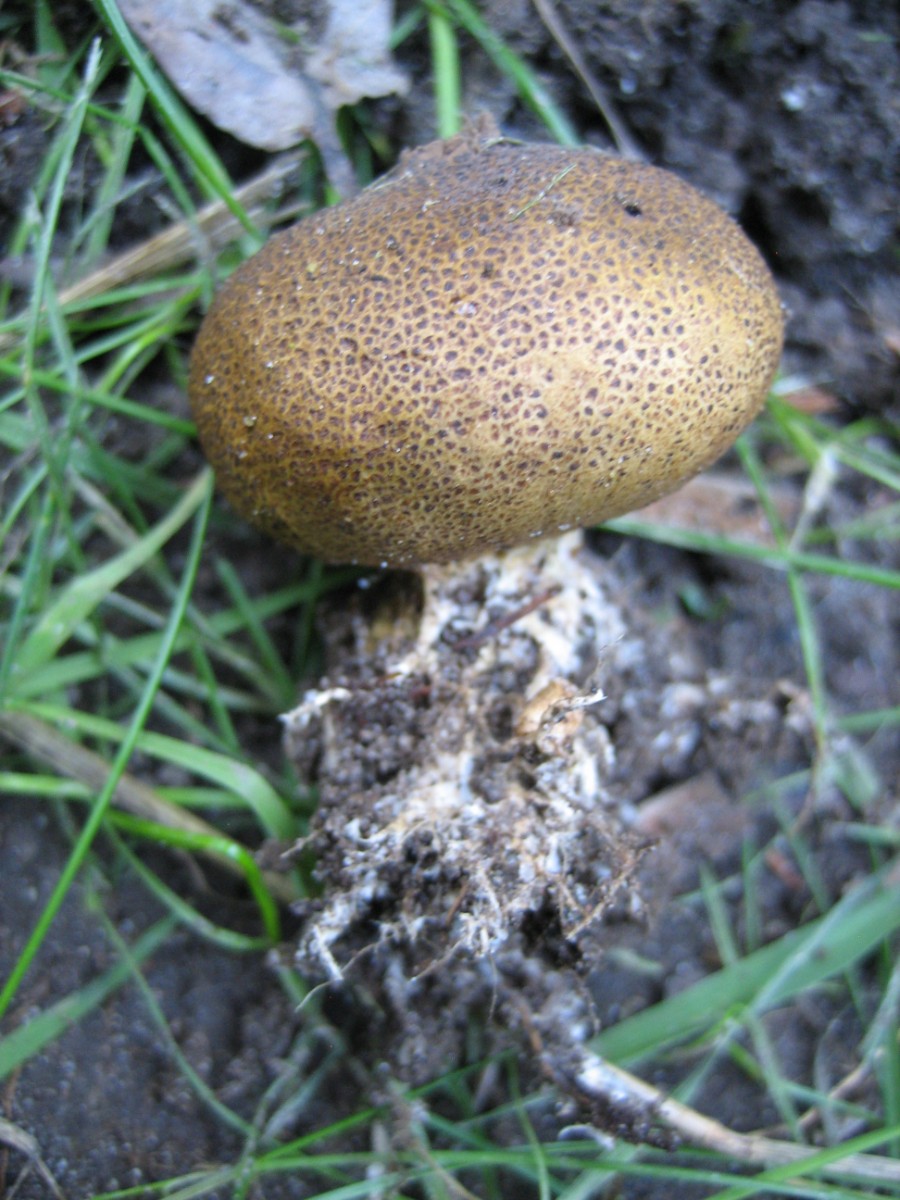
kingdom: Fungi
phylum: Basidiomycota
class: Agaricomycetes
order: Boletales
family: Sclerodermataceae
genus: Scleroderma
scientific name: Scleroderma verrucosum
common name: stilket bruskbold
